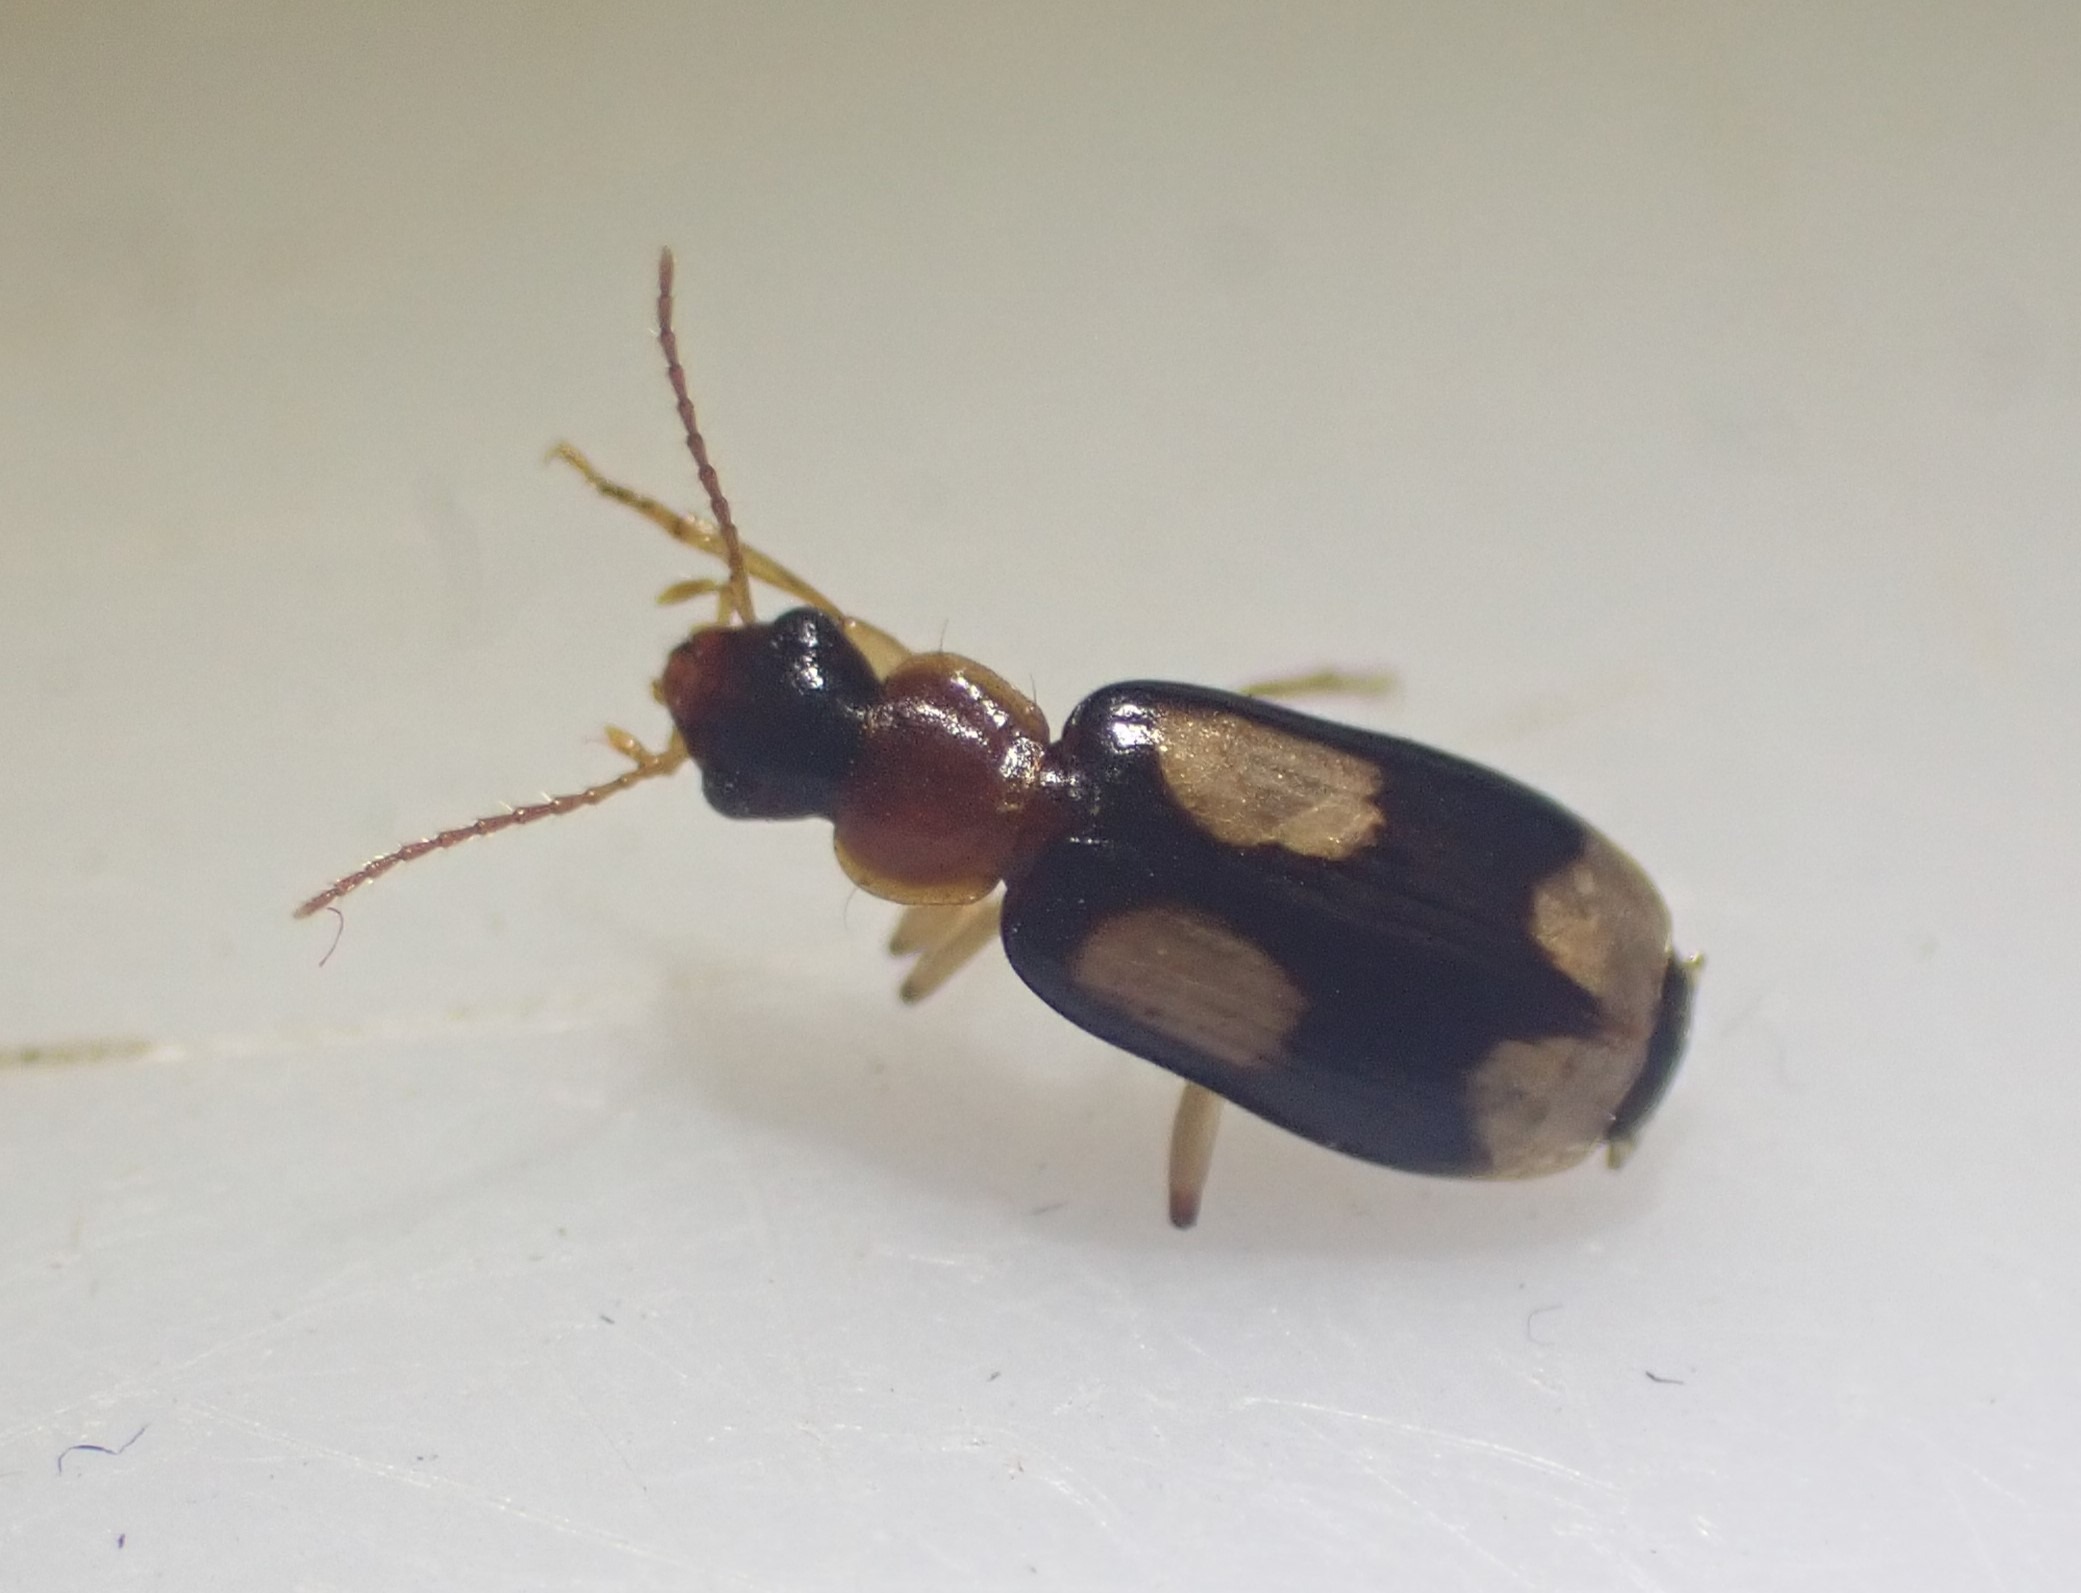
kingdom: Animalia
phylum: Arthropoda
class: Insecta
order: Coleoptera
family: Carabidae
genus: Dromius
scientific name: Dromius quadrimaculatus
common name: Fireplettet barkløber
